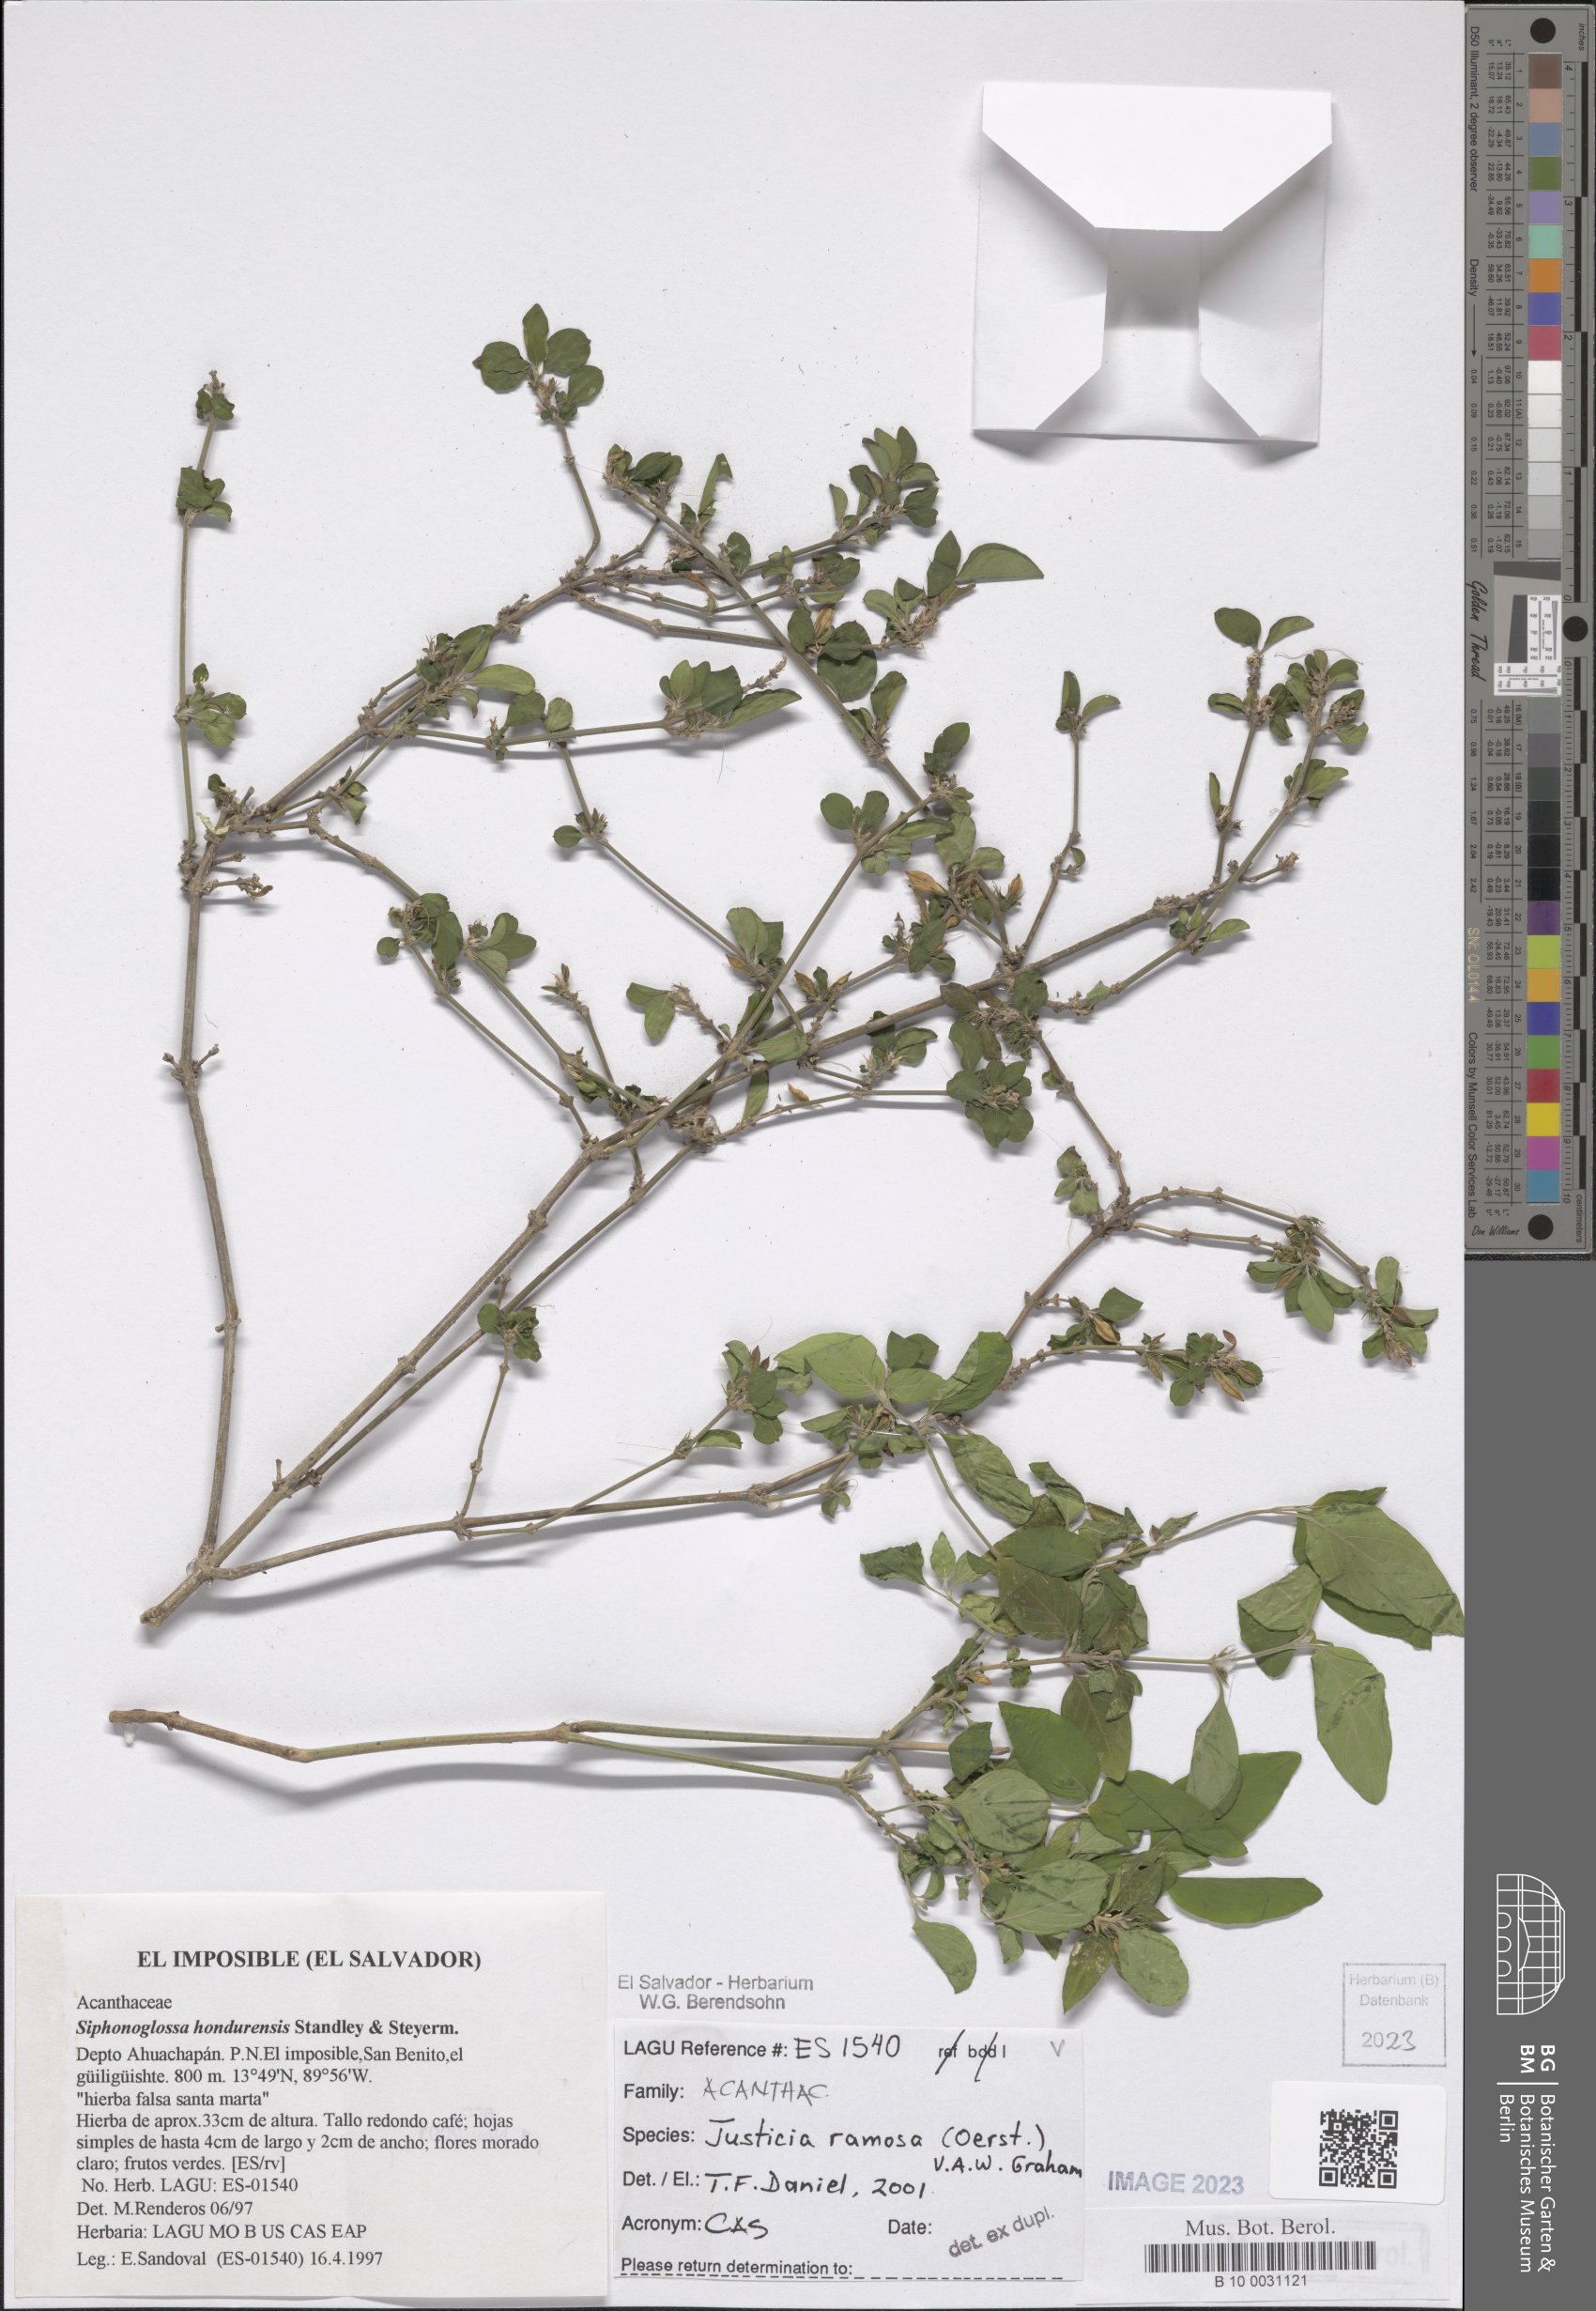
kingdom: Plantae
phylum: Tracheophyta
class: Magnoliopsida
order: Lamiales
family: Acanthaceae
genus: Justicia
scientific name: Justicia ramosa
